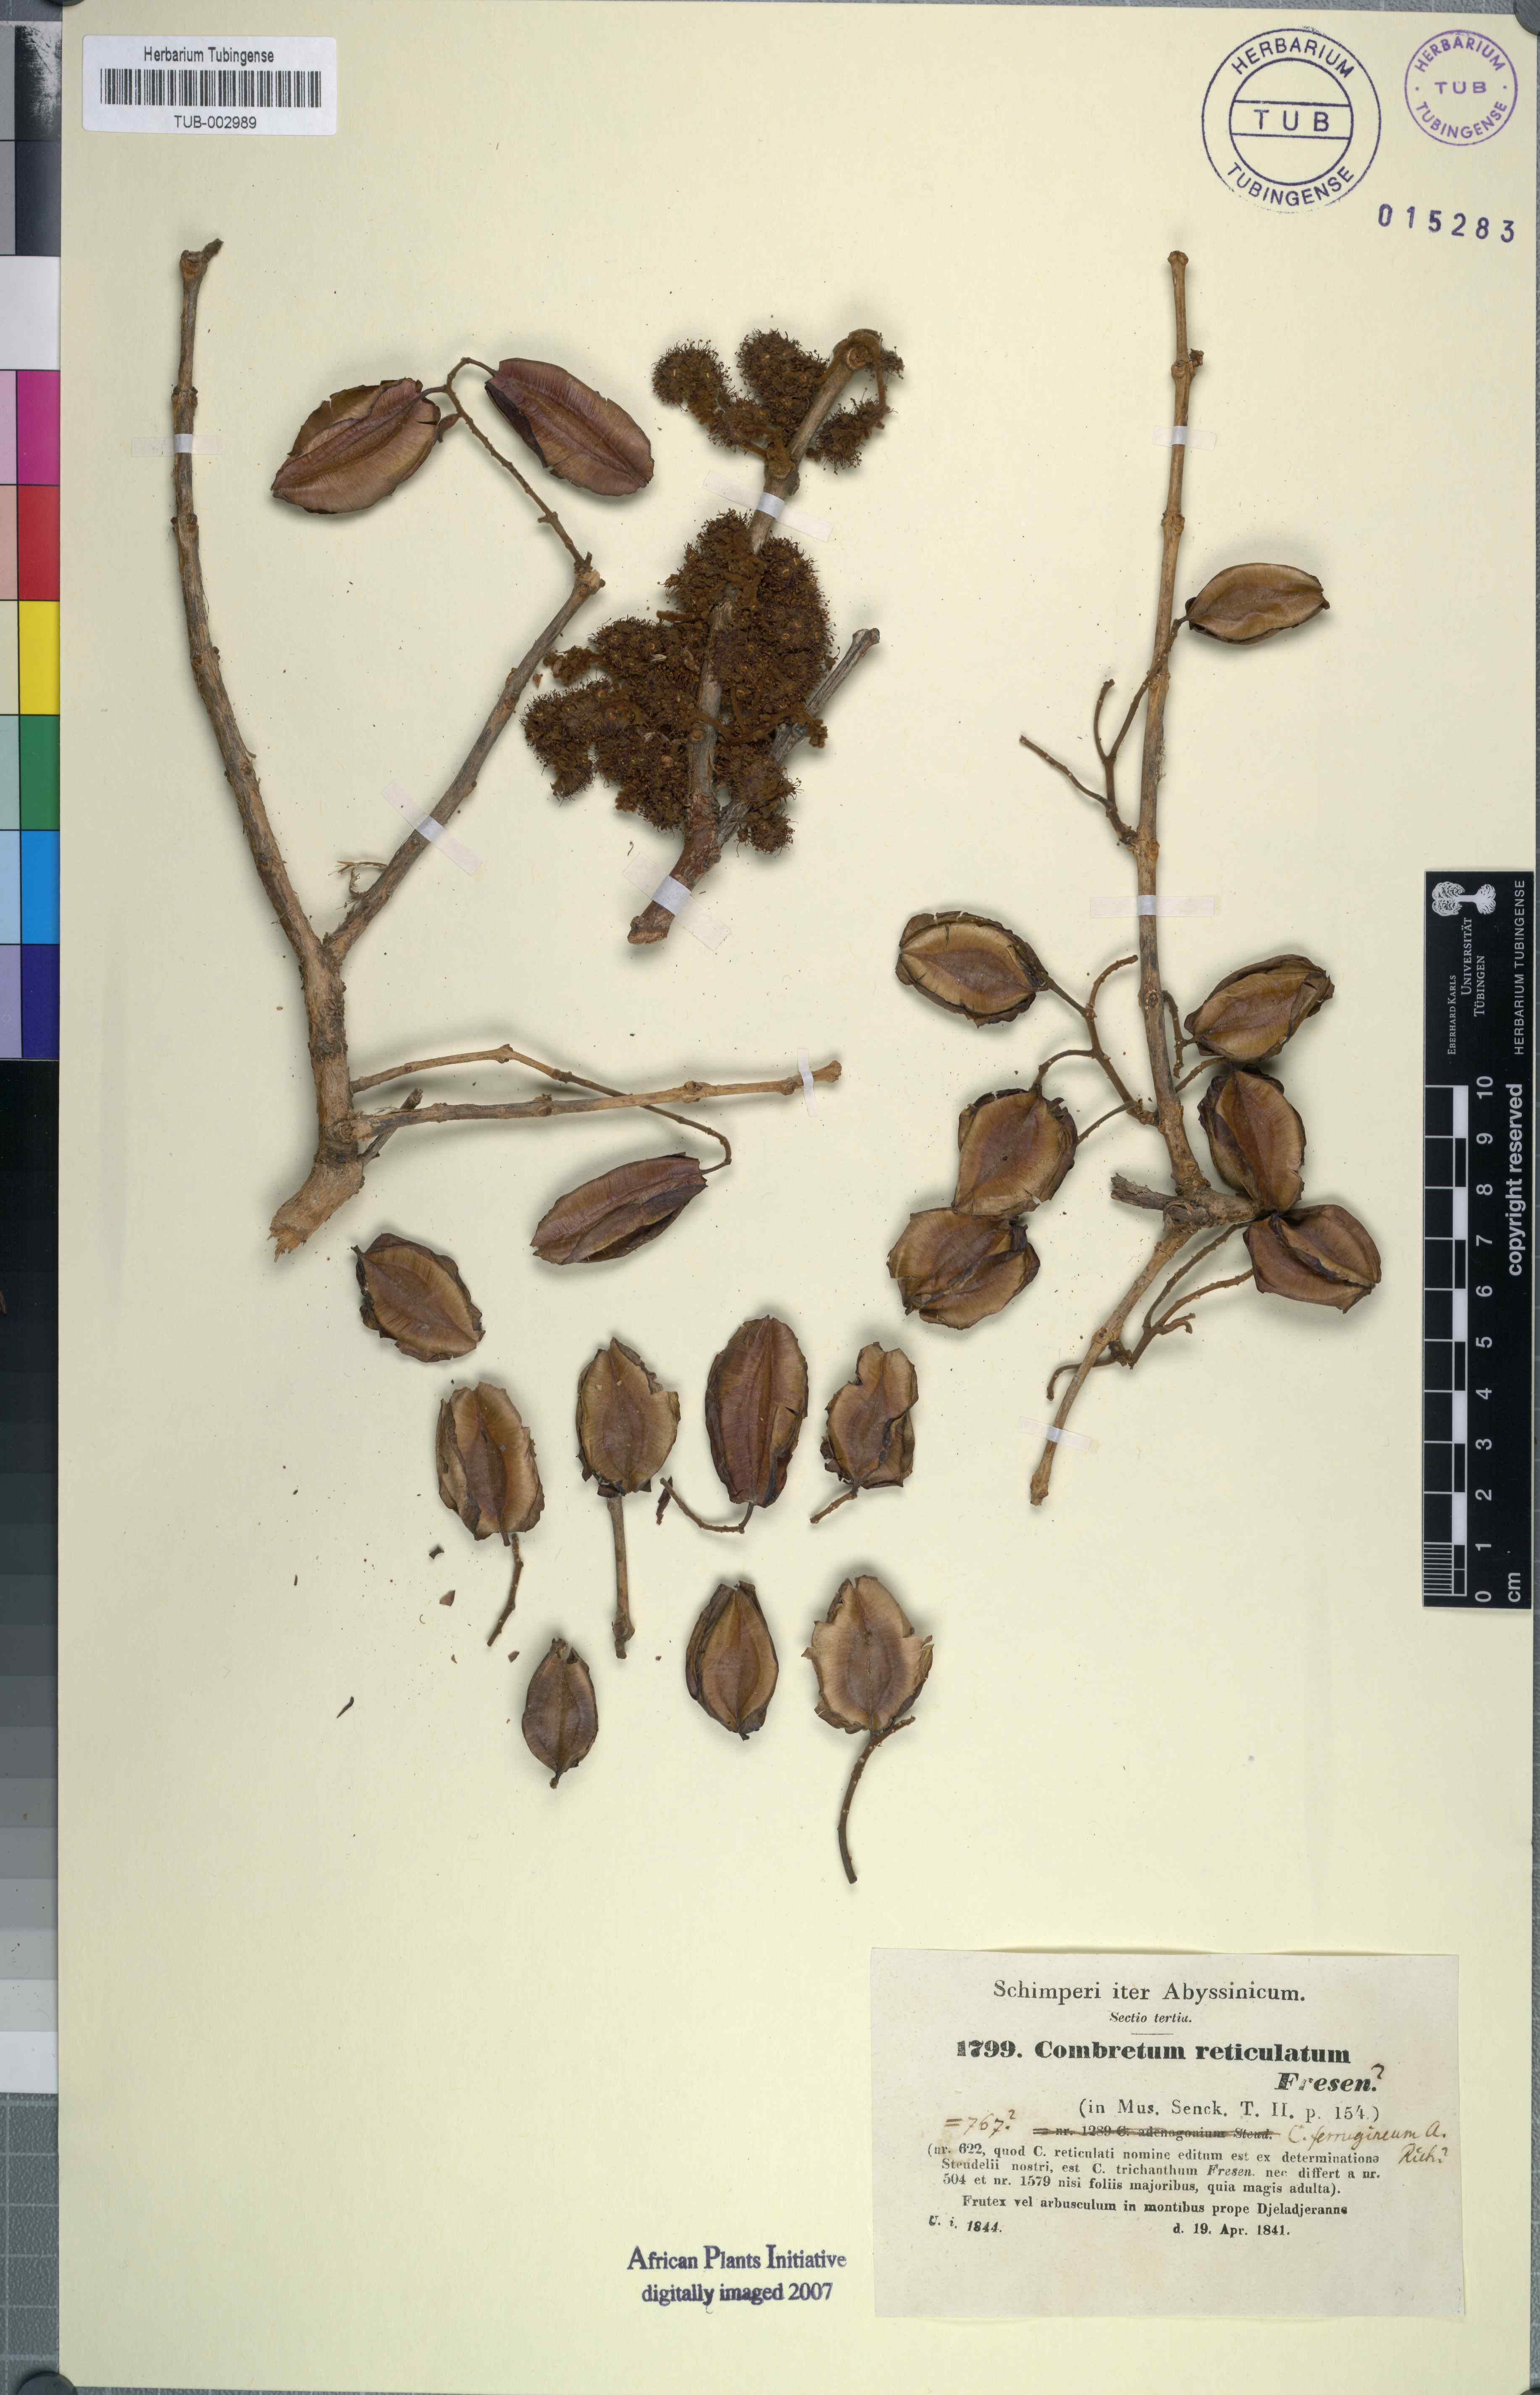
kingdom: Plantae
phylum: Tracheophyta
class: Magnoliopsida
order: Myrtales
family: Combretaceae
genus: Combretum
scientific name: Combretum adenogonium
